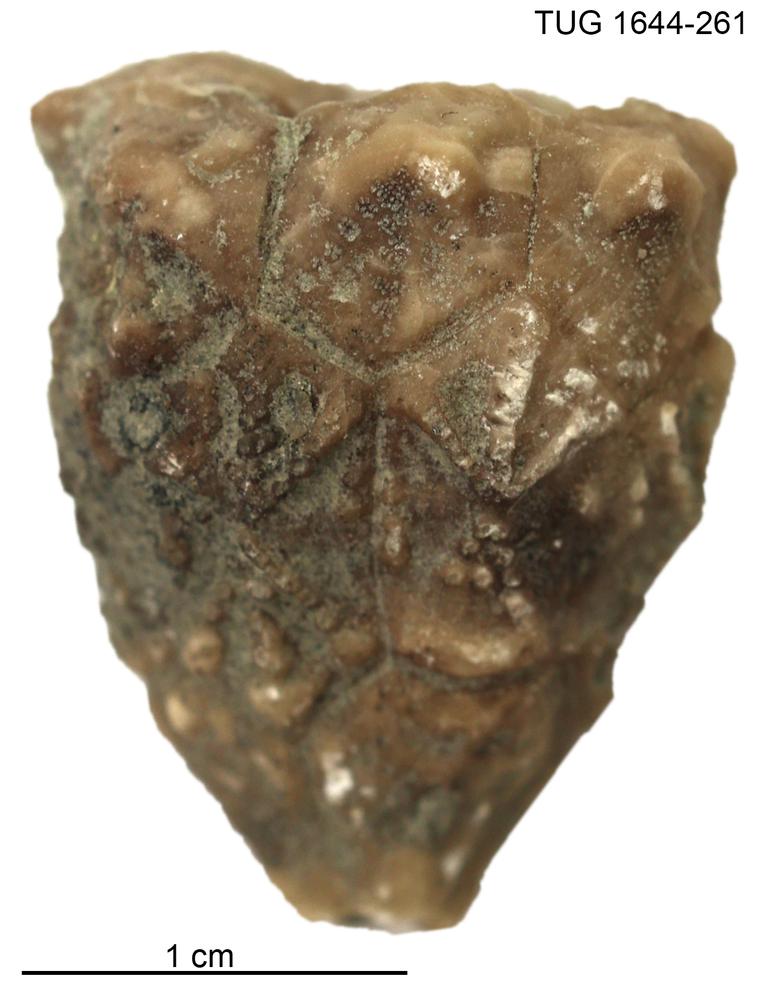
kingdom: Animalia
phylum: Echinodermata
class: Crinoidea
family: Hemicosmitidae
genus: Hemicosmites
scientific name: Hemicosmites
